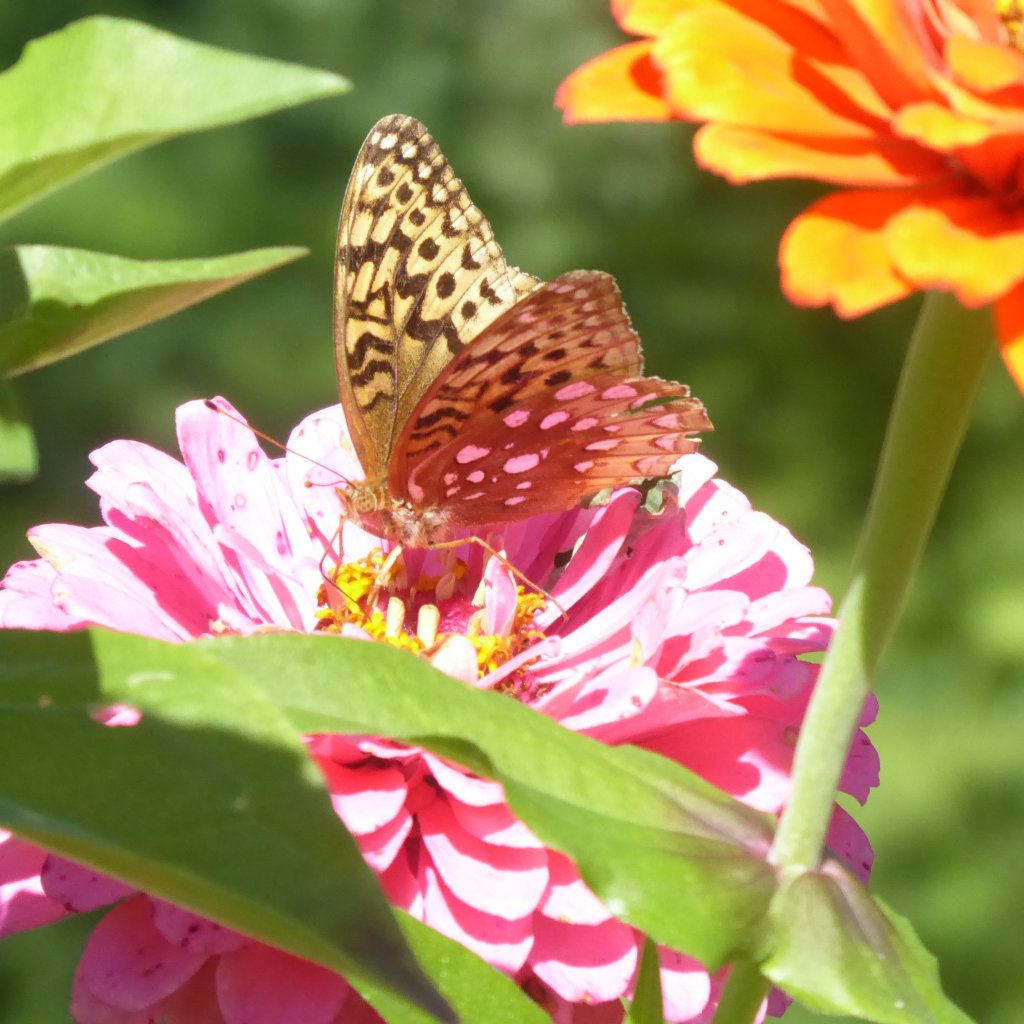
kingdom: Animalia
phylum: Arthropoda
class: Insecta
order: Lepidoptera
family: Nymphalidae
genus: Speyeria
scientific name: Speyeria cybele
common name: Great Spangled Fritillary
